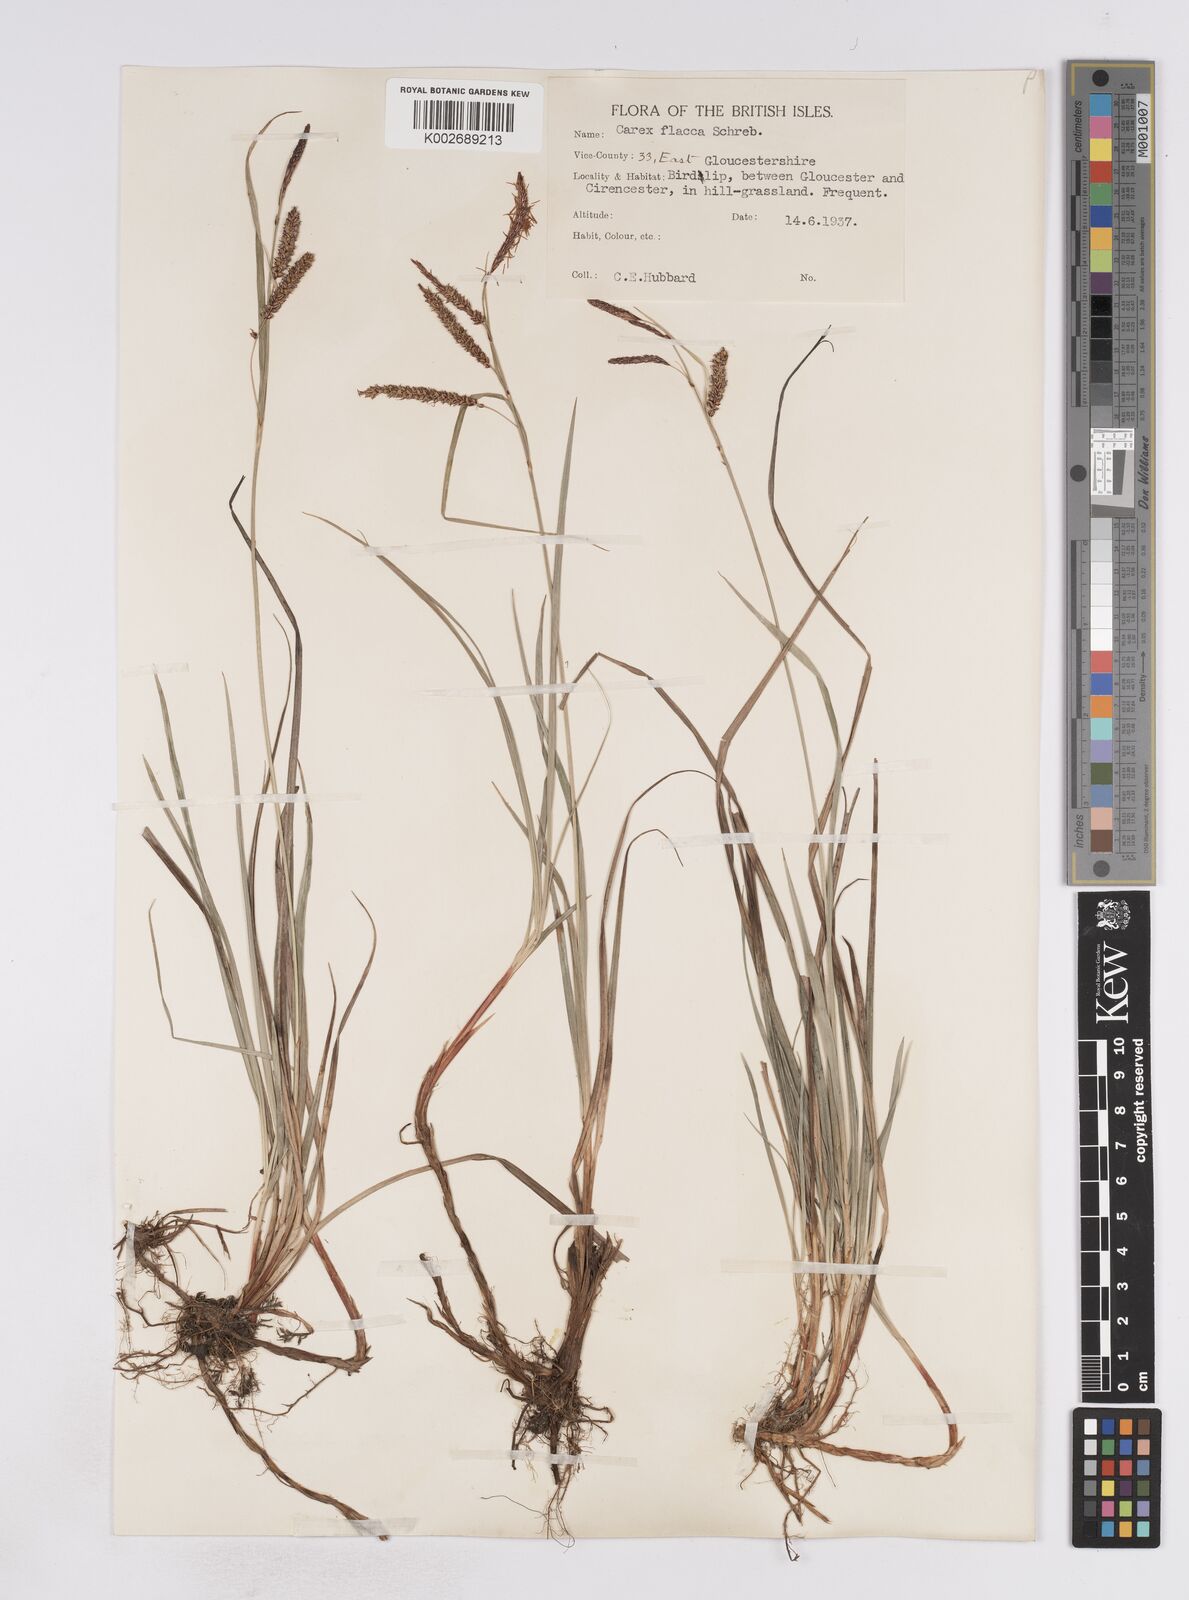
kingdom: Plantae
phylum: Tracheophyta
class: Liliopsida
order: Poales
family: Cyperaceae
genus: Carex
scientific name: Carex flacca
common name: Glaucous sedge
